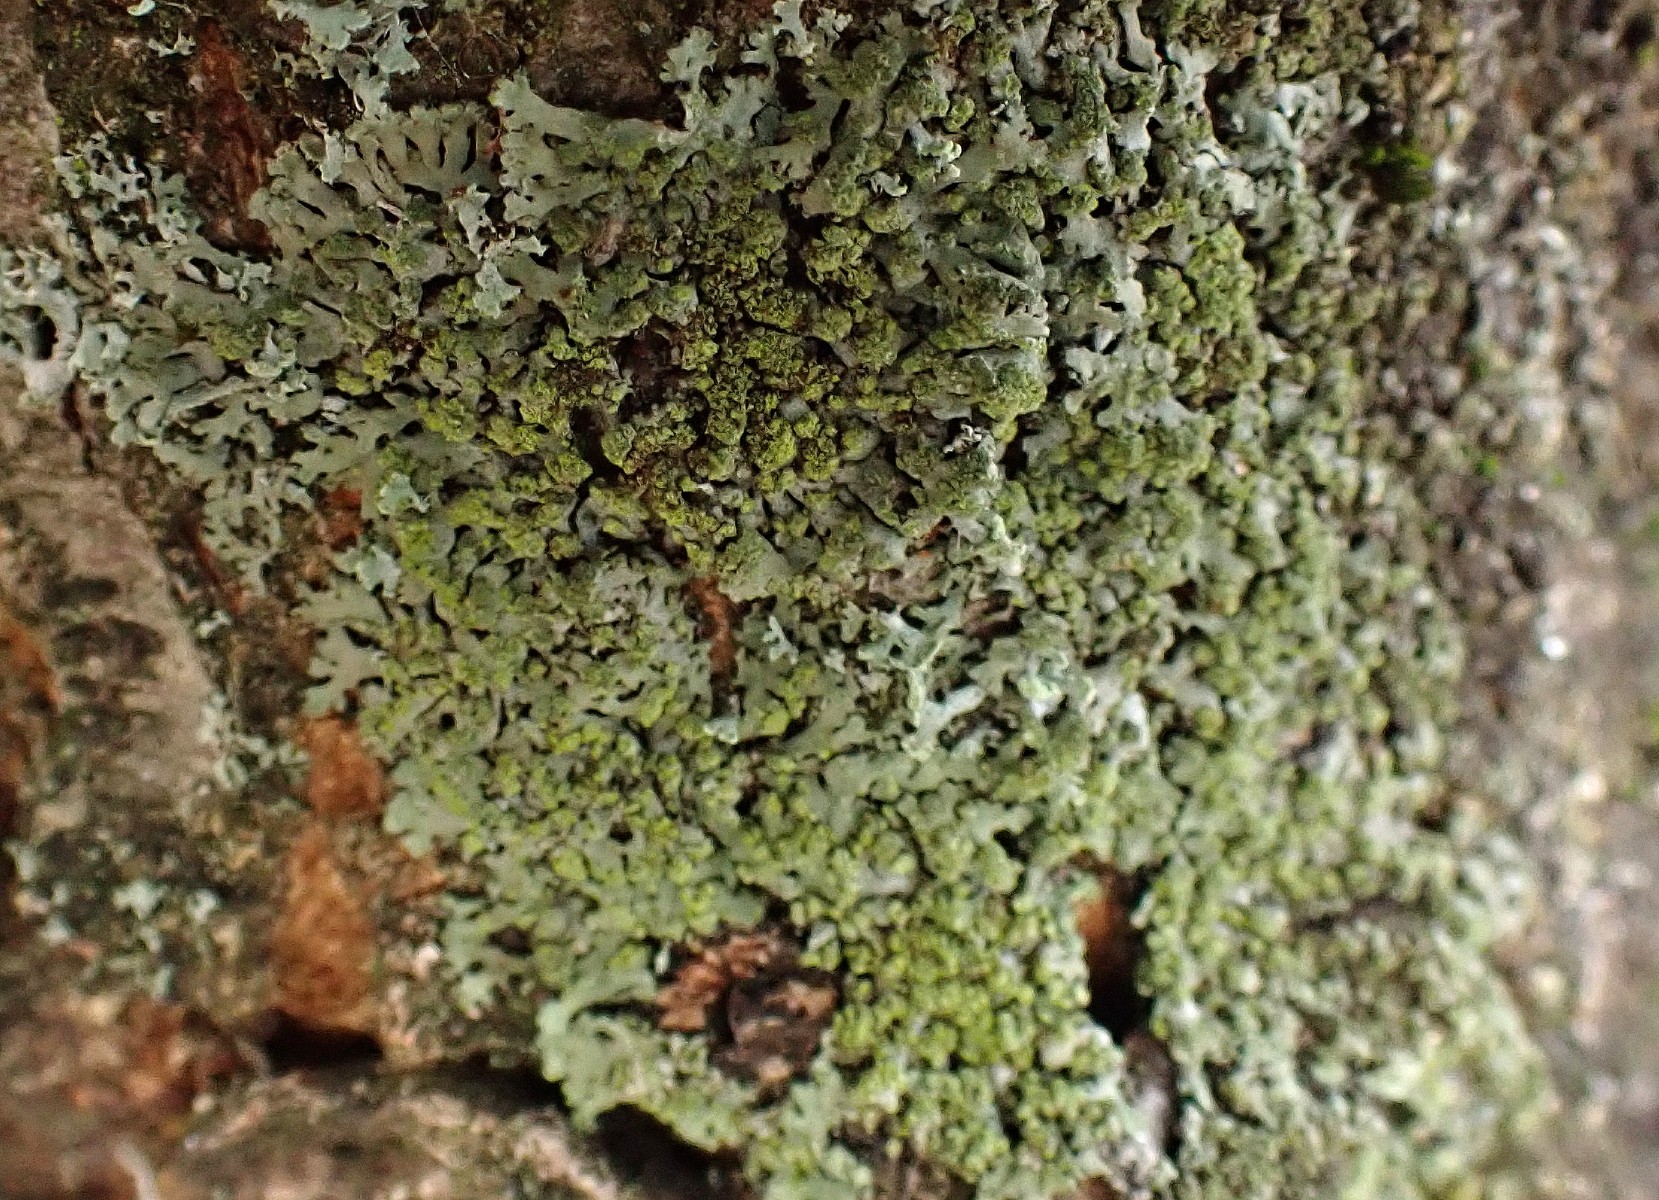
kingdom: Fungi
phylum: Ascomycota
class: Lecanoromycetes
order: Caliciales
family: Physciaceae
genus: Phaeophyscia
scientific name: Phaeophyscia orbicularis
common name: grågrøn rosetlav
